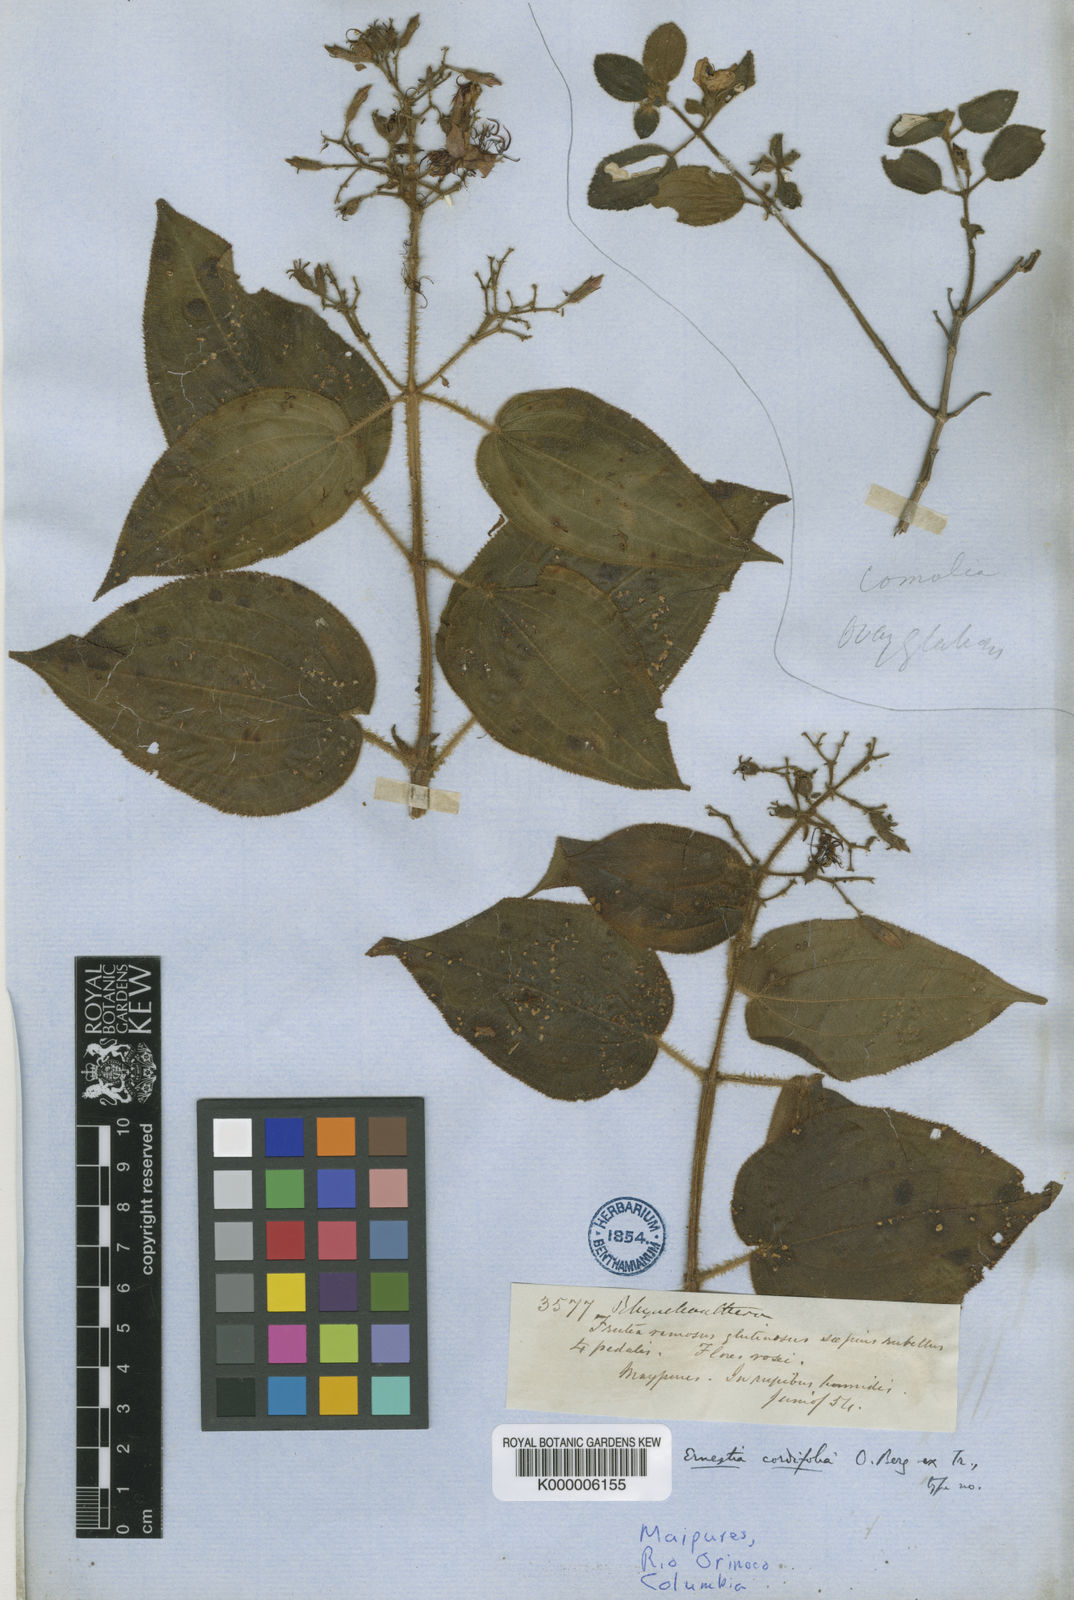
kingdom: Plantae
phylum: Tracheophyta
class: Magnoliopsida
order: Myrtales
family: Melastomataceae
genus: Pseudoernestia
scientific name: Pseudoernestia cordifolia
